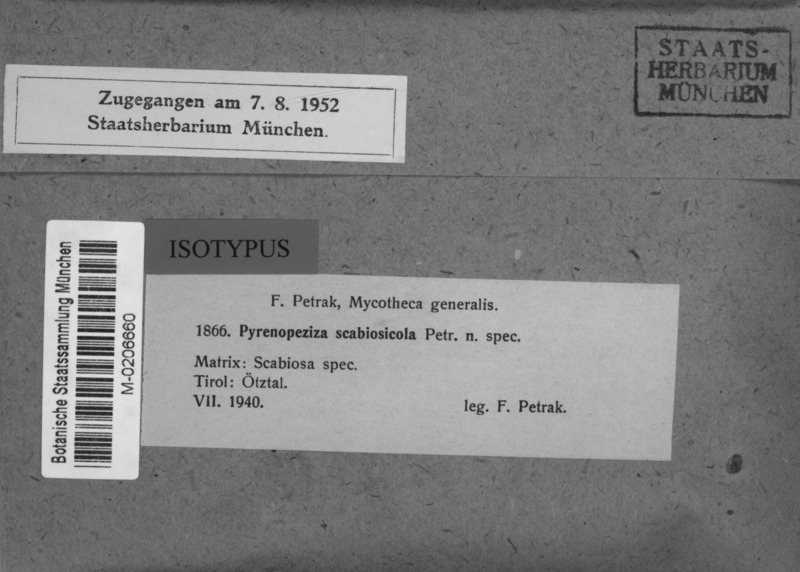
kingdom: Fungi
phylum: Ascomycota
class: Leotiomycetes
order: Helotiales
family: Ploettnerulaceae
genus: Pirottaea
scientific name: Pirottaea scabiosicola
